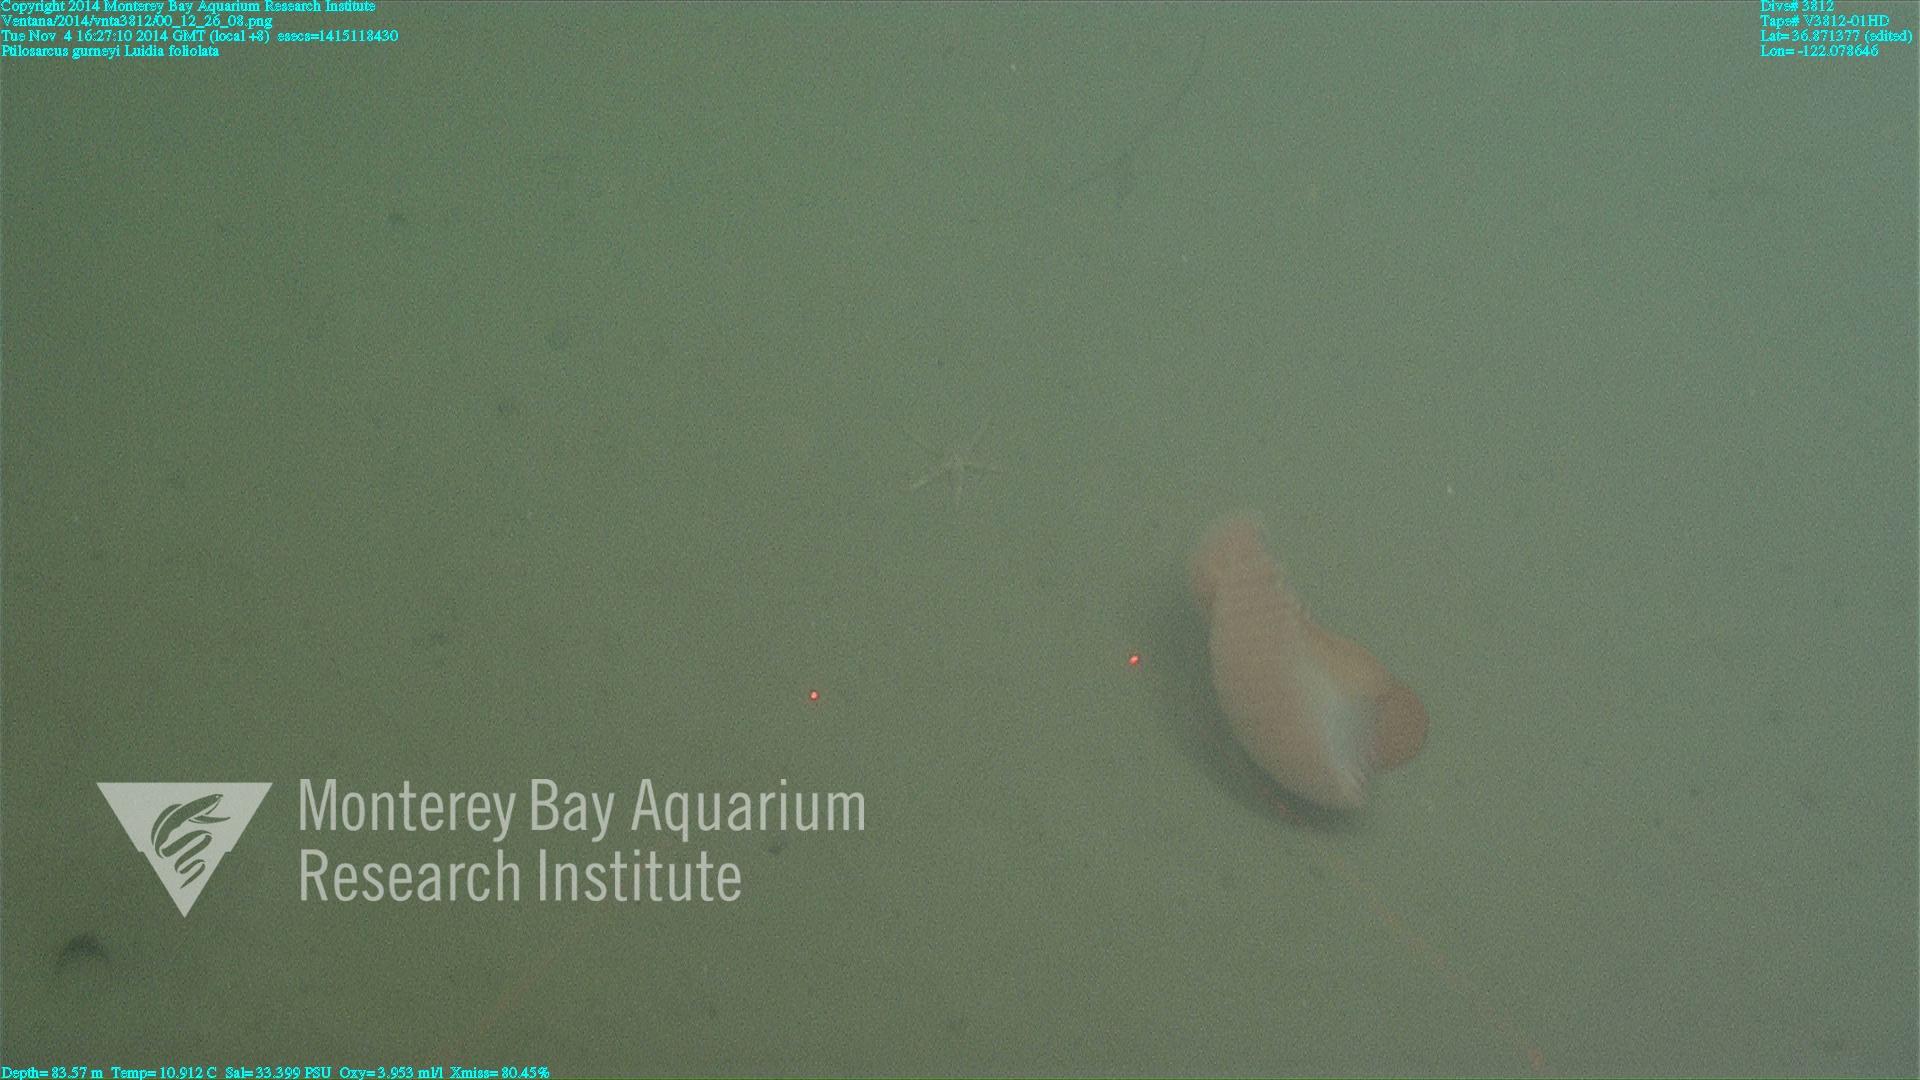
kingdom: Animalia
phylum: Cnidaria
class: Anthozoa
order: Scleralcyonacea
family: Pennatulidae
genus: Ptilosarcus
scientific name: Ptilosarcus gurneyi
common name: Gurney's sea pen
